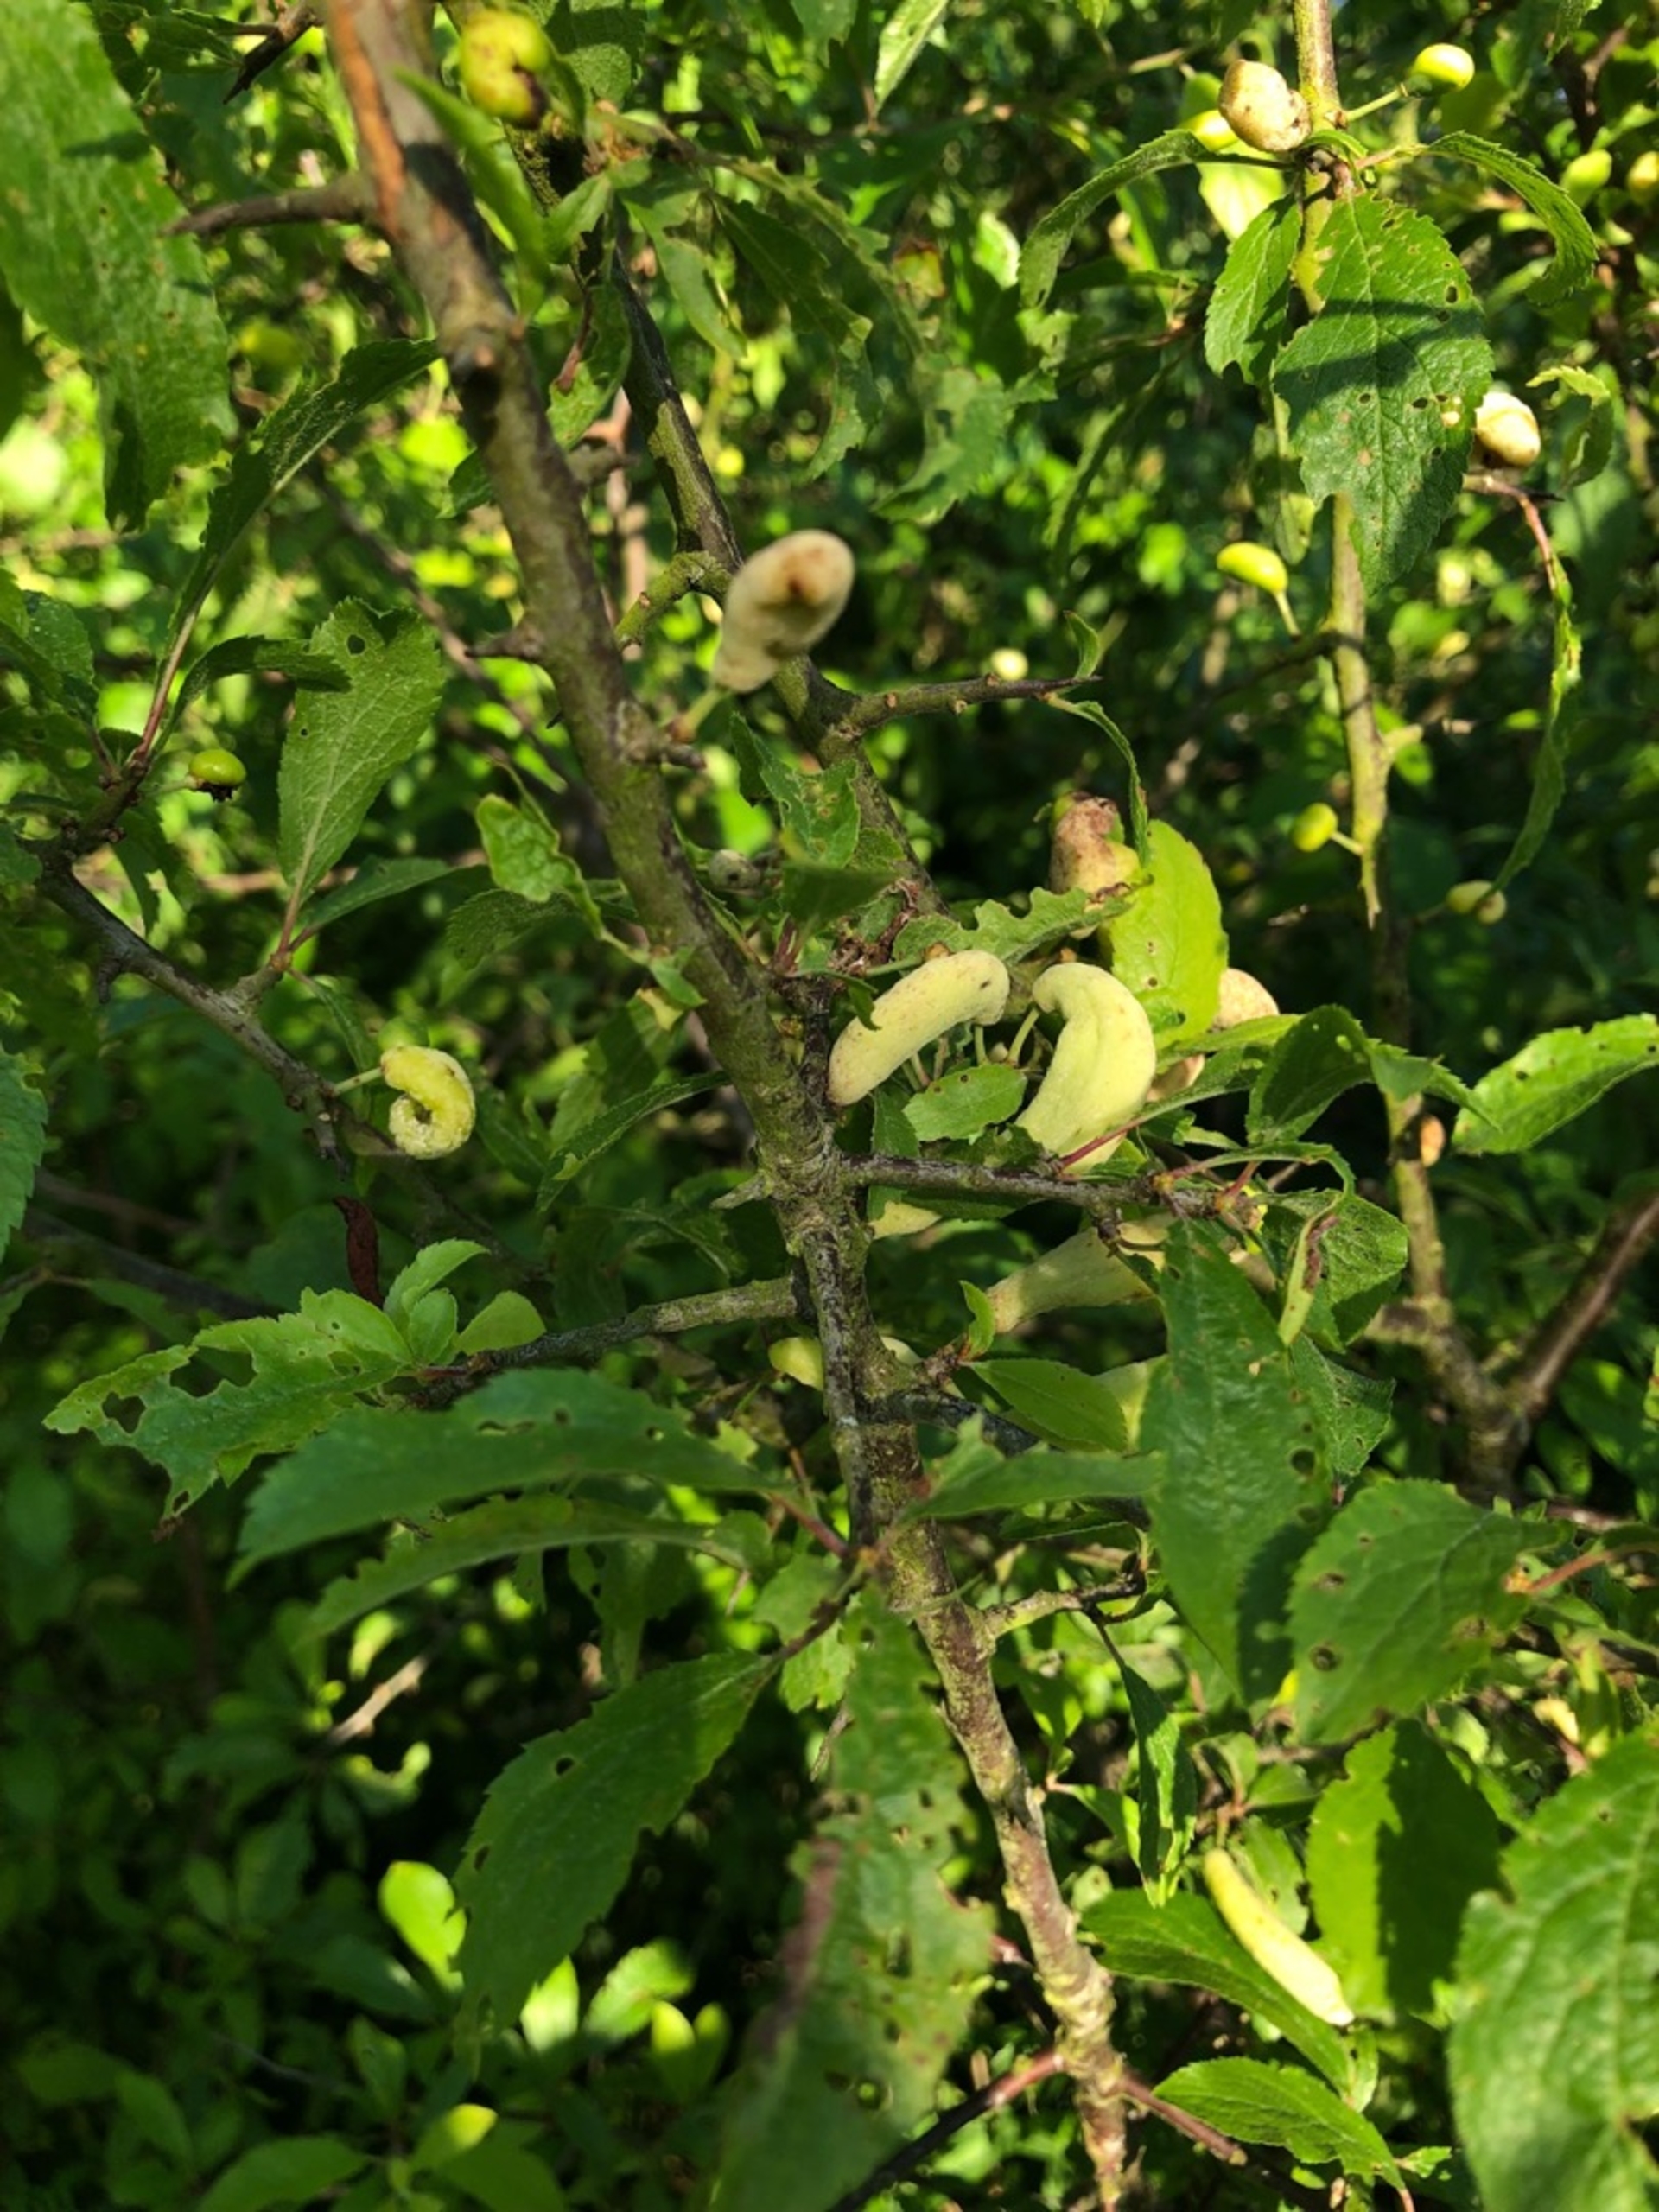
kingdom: Fungi
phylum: Ascomycota
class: Taphrinomycetes
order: Taphrinales
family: Taphrinaceae
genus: Taphrina
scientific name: Taphrina pruni
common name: Blommepung
